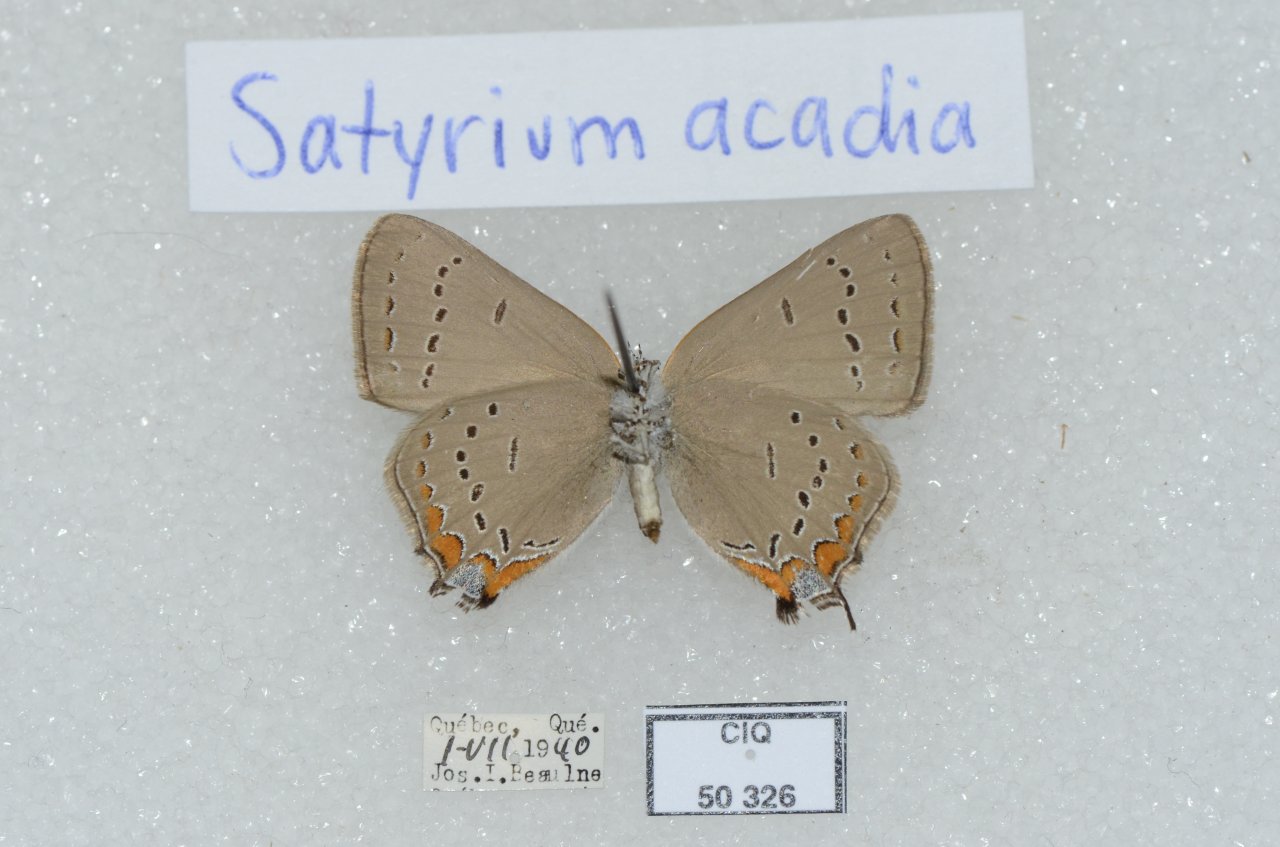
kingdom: Animalia
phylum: Arthropoda
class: Insecta
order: Lepidoptera
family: Lycaenidae
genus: Strymon
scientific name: Strymon acadica
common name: Acadian Hairstreak
